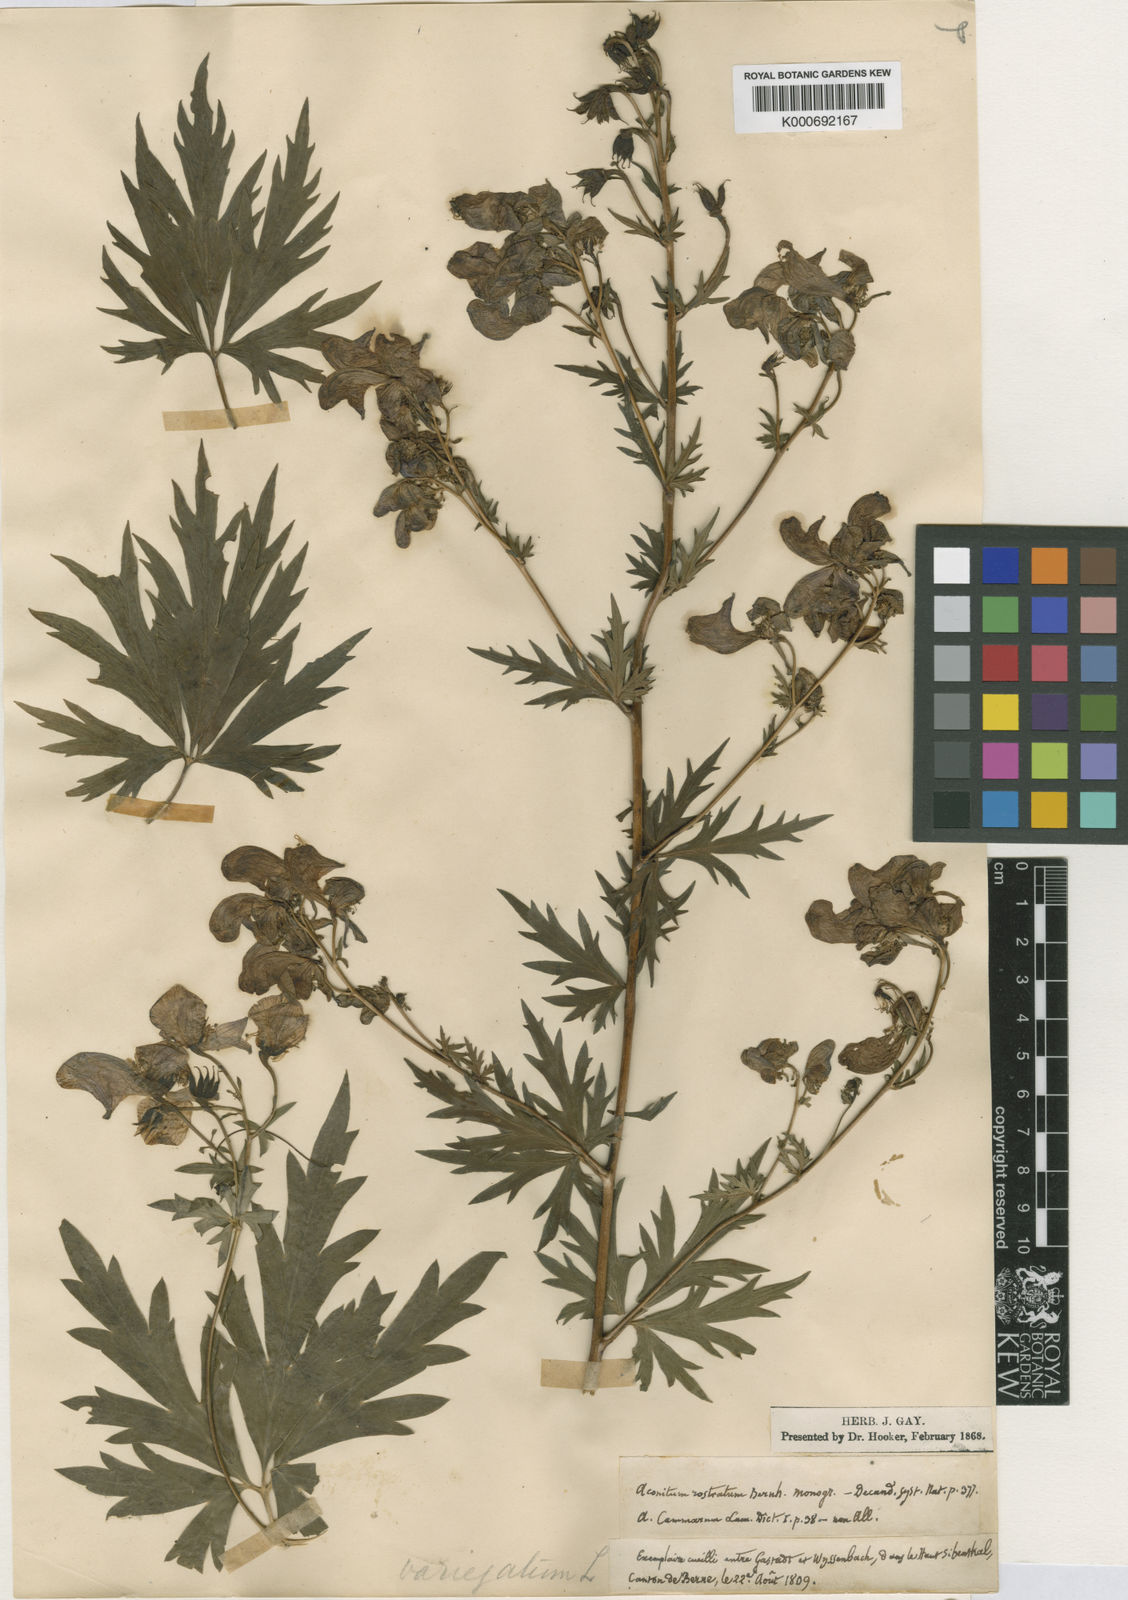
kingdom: Plantae
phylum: Tracheophyta
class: Magnoliopsida
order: Ranunculales
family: Ranunculaceae
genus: Aconitum
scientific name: Aconitum variegatum
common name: Manchurian monkshood
